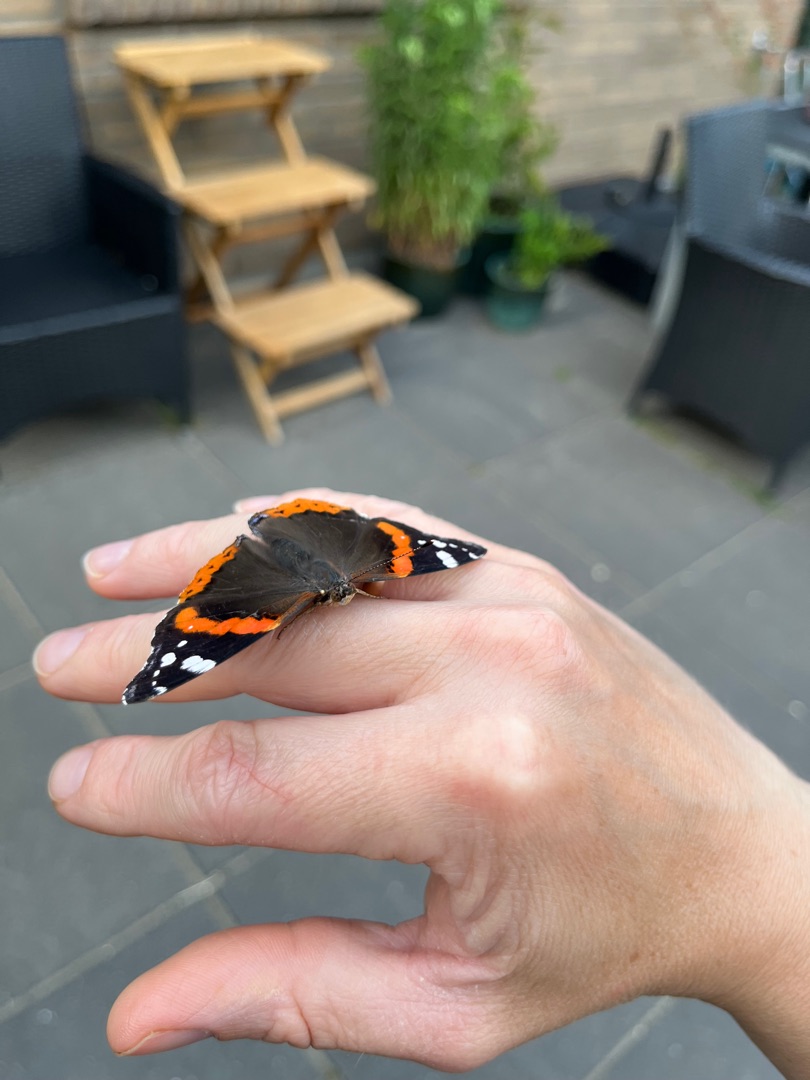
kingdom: Animalia
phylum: Arthropoda
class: Insecta
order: Lepidoptera
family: Nymphalidae
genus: Vanessa
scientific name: Vanessa atalanta
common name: Admiral
